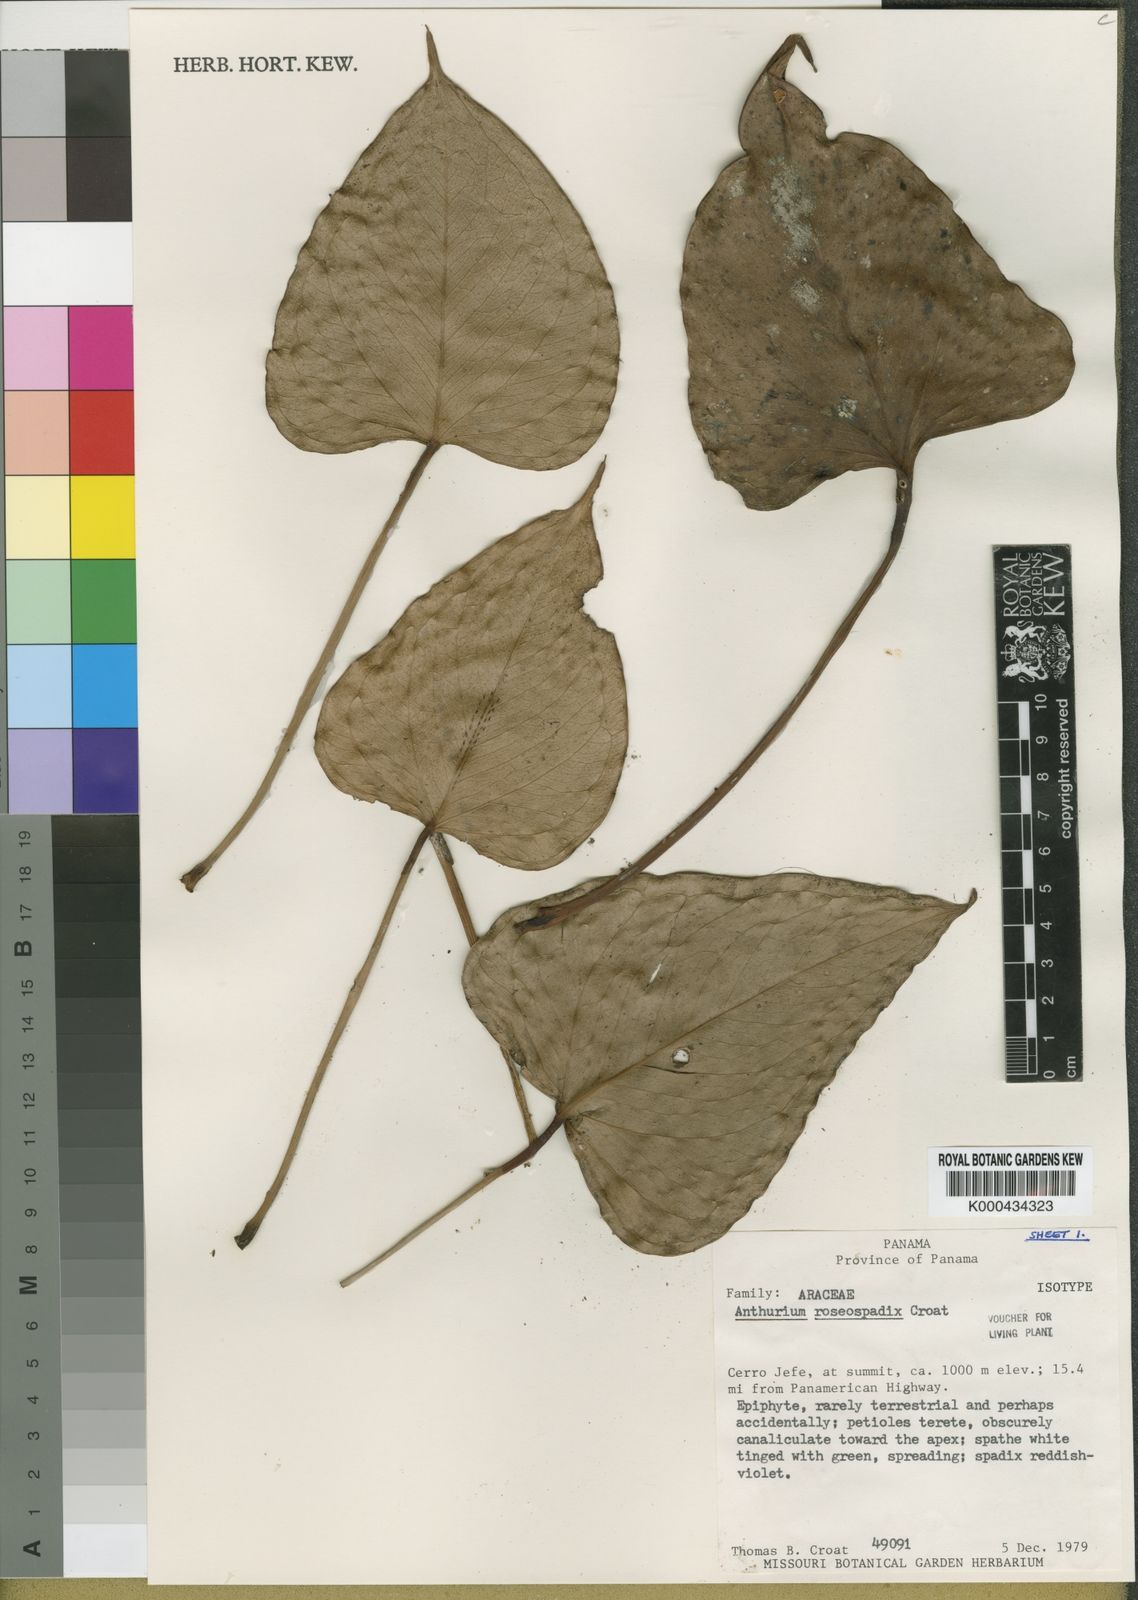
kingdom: Plantae
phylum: Tracheophyta
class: Liliopsida
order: Alismatales
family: Araceae
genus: Anthurium
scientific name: Anthurium roseospadix
